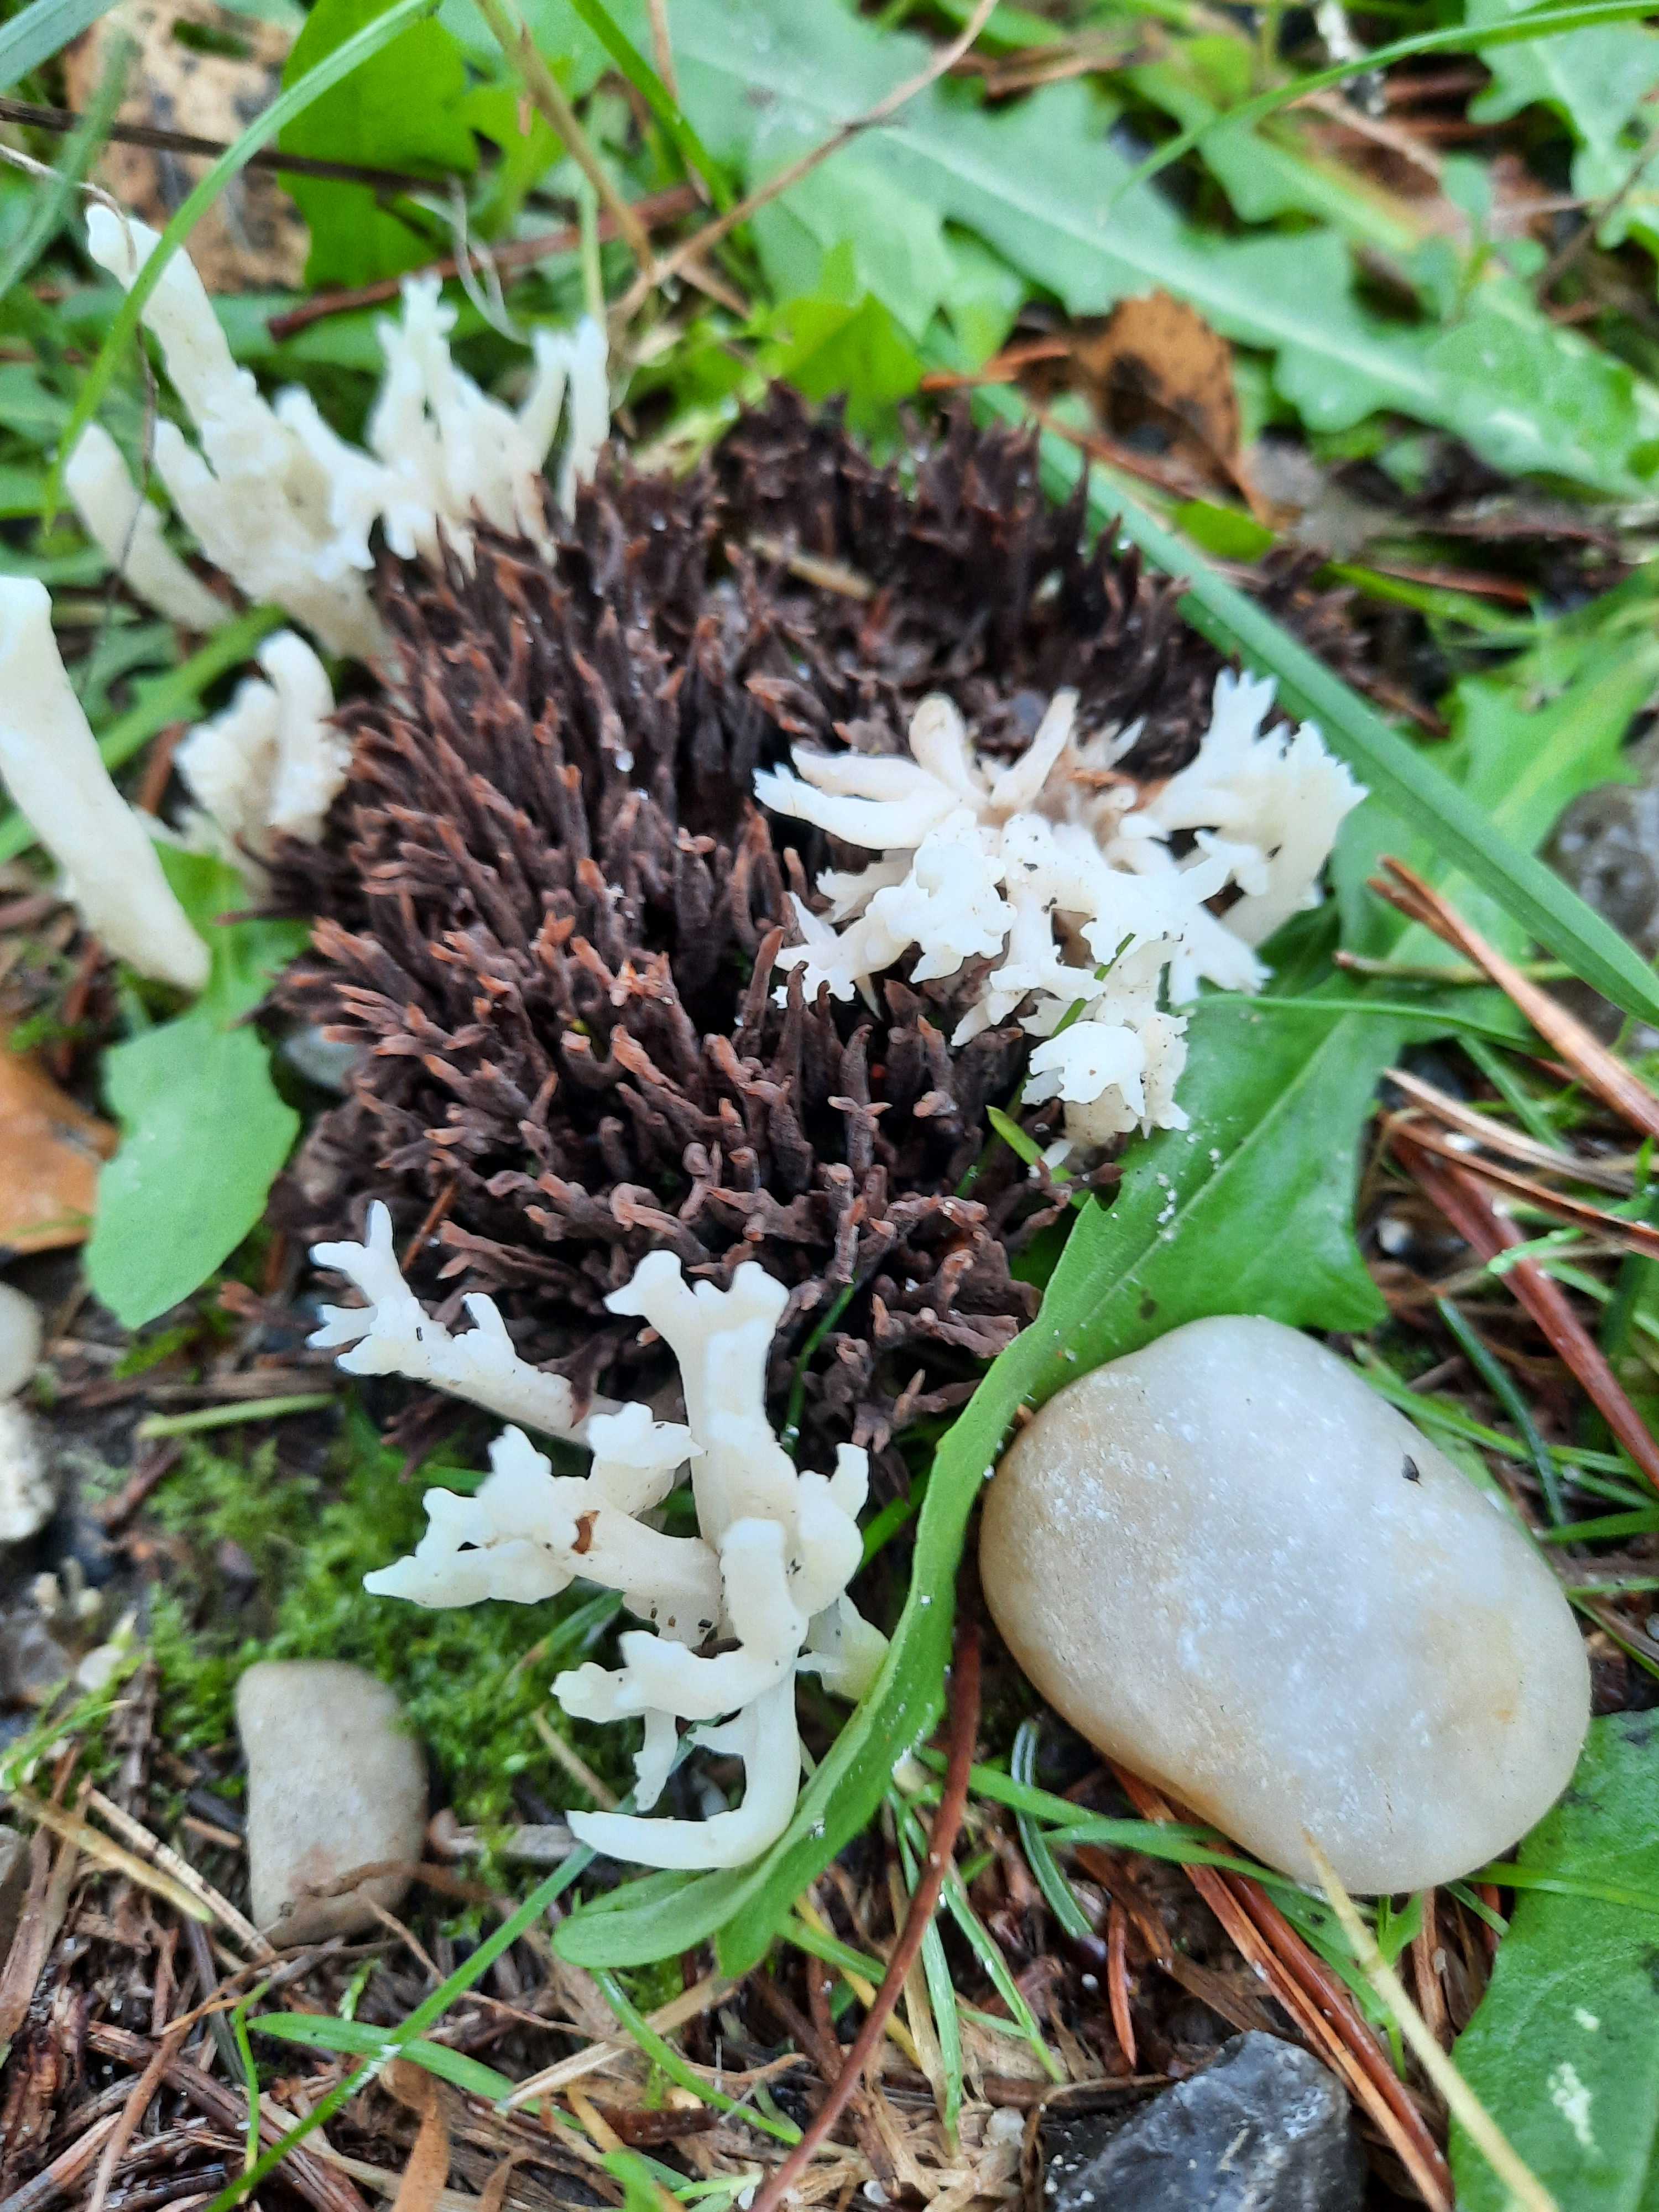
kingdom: Fungi
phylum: Basidiomycota
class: Agaricomycetes
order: Thelephorales
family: Thelephoraceae
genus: Thelephora
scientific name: Thelephora palmata
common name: grenet frynsesvamp
